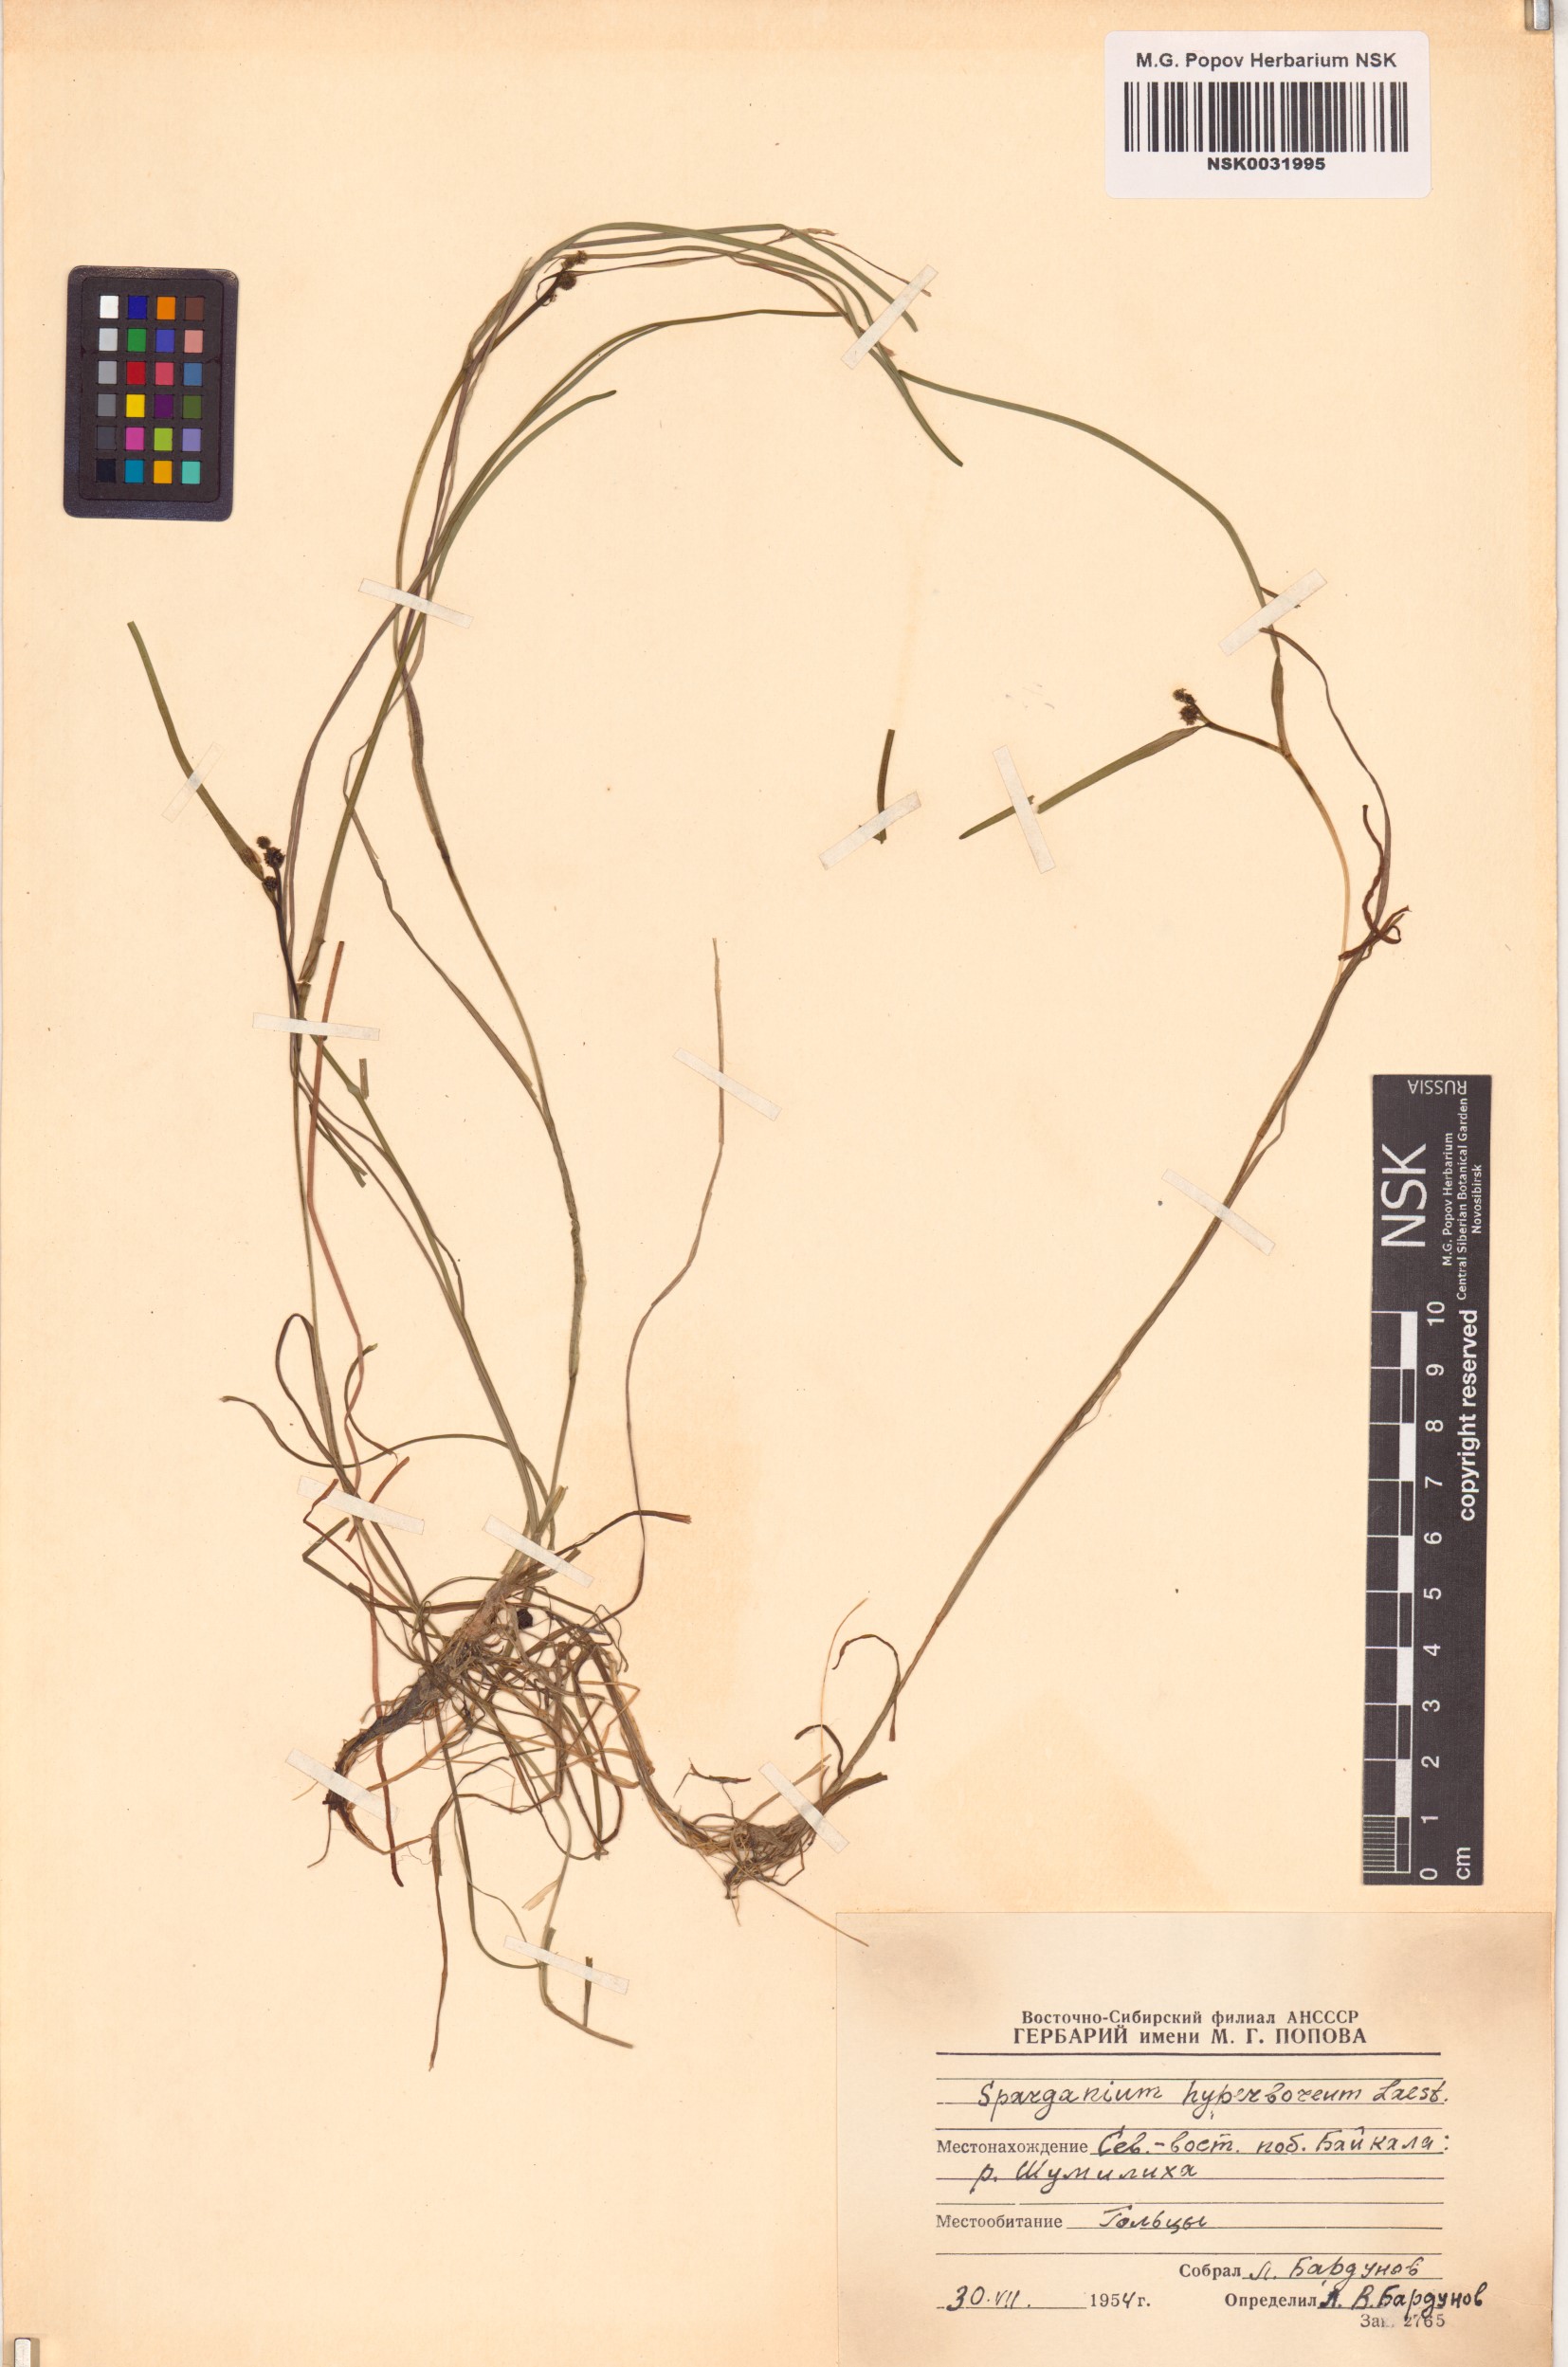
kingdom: Plantae
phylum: Tracheophyta
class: Liliopsida
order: Poales
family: Typhaceae
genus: Sparganium
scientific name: Sparganium hyperboreum
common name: Arctic burreed
